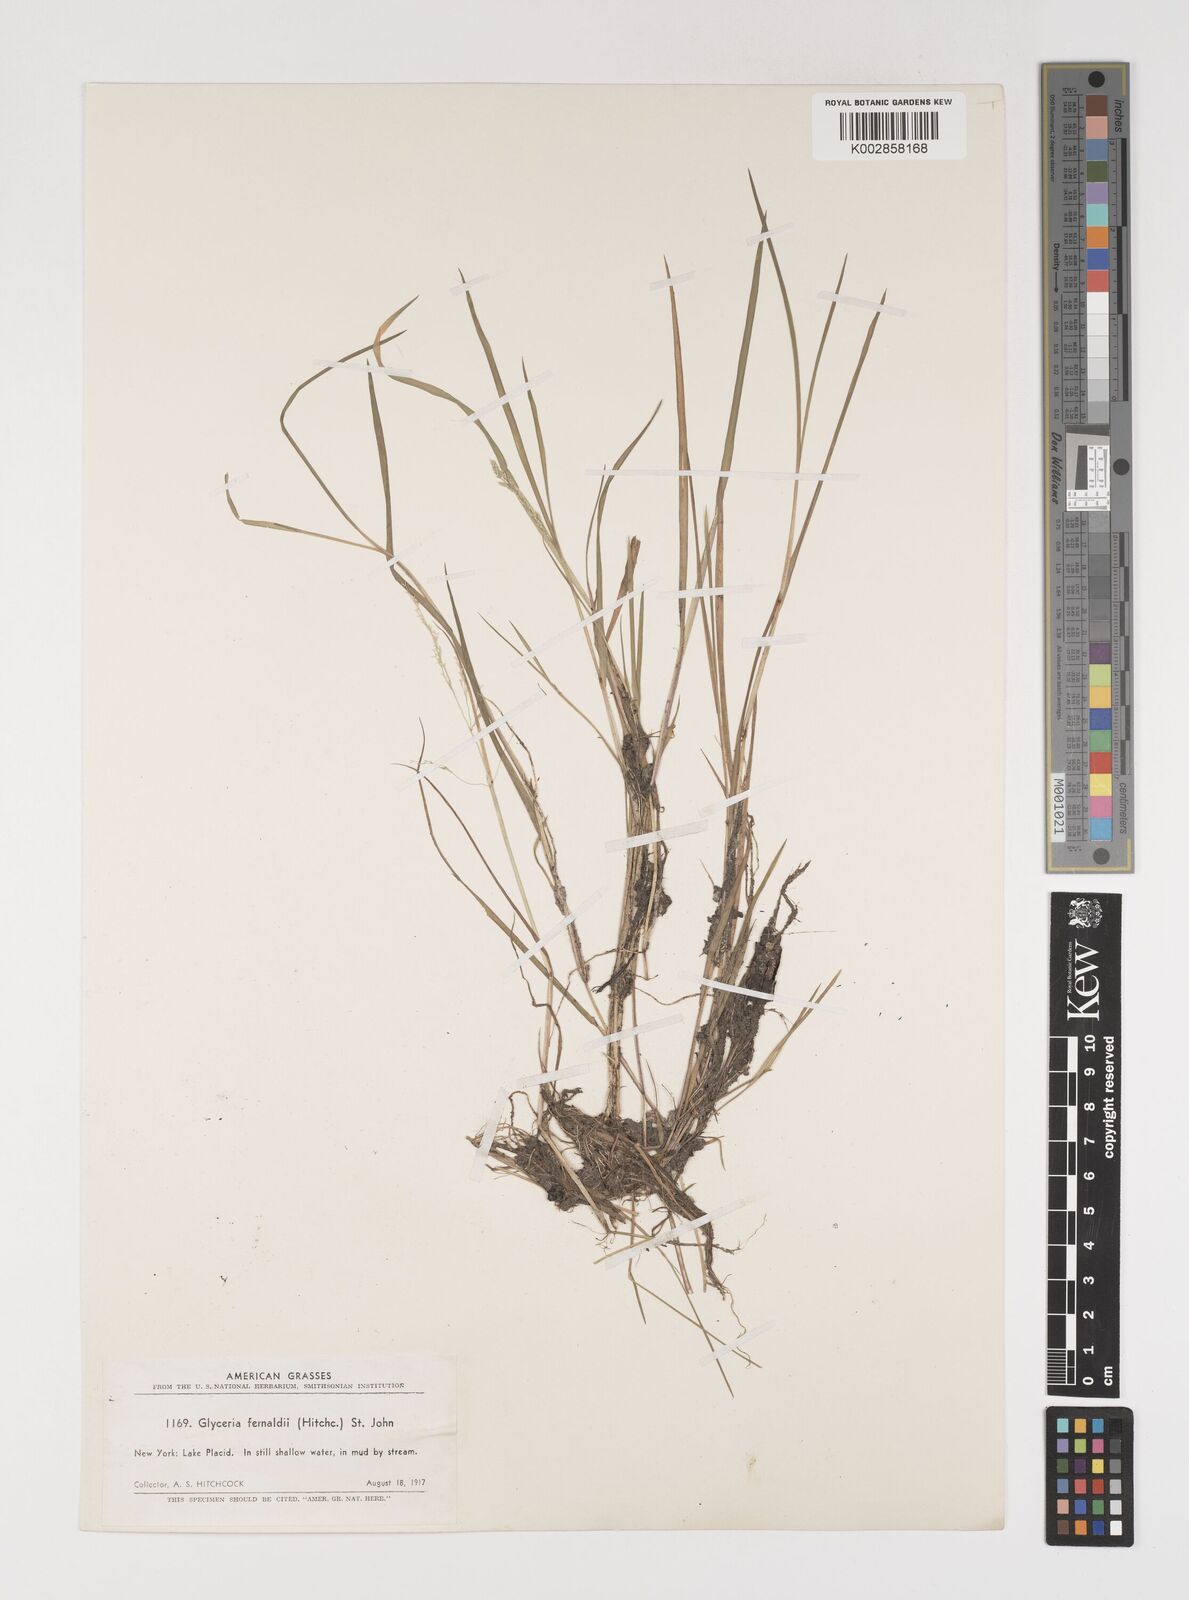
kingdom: Plantae
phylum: Tracheophyta
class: Liliopsida
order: Poales
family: Poaceae
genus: Torreyochloa
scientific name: Torreyochloa pallida
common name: Pale false mannagrass
